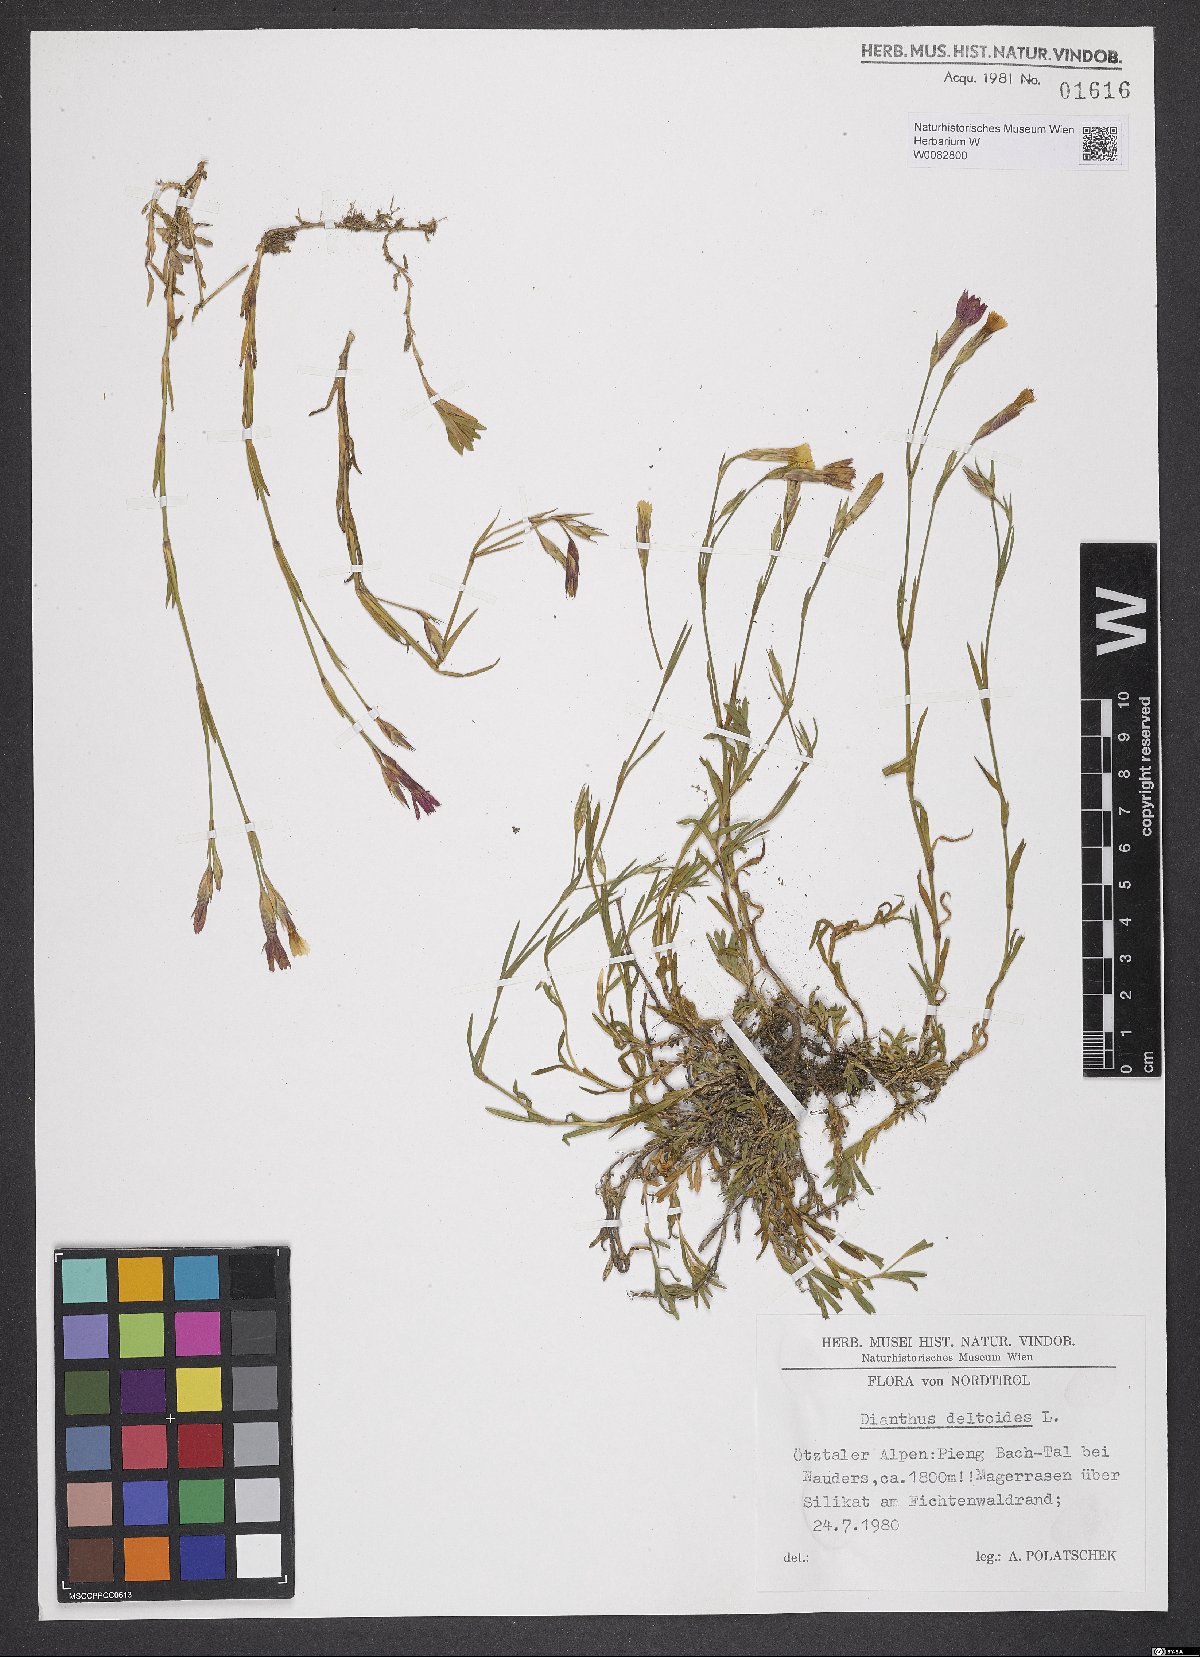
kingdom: Plantae
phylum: Tracheophyta
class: Magnoliopsida
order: Caryophyllales
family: Caryophyllaceae
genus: Dianthus
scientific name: Dianthus deltoides
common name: Maiden pink
